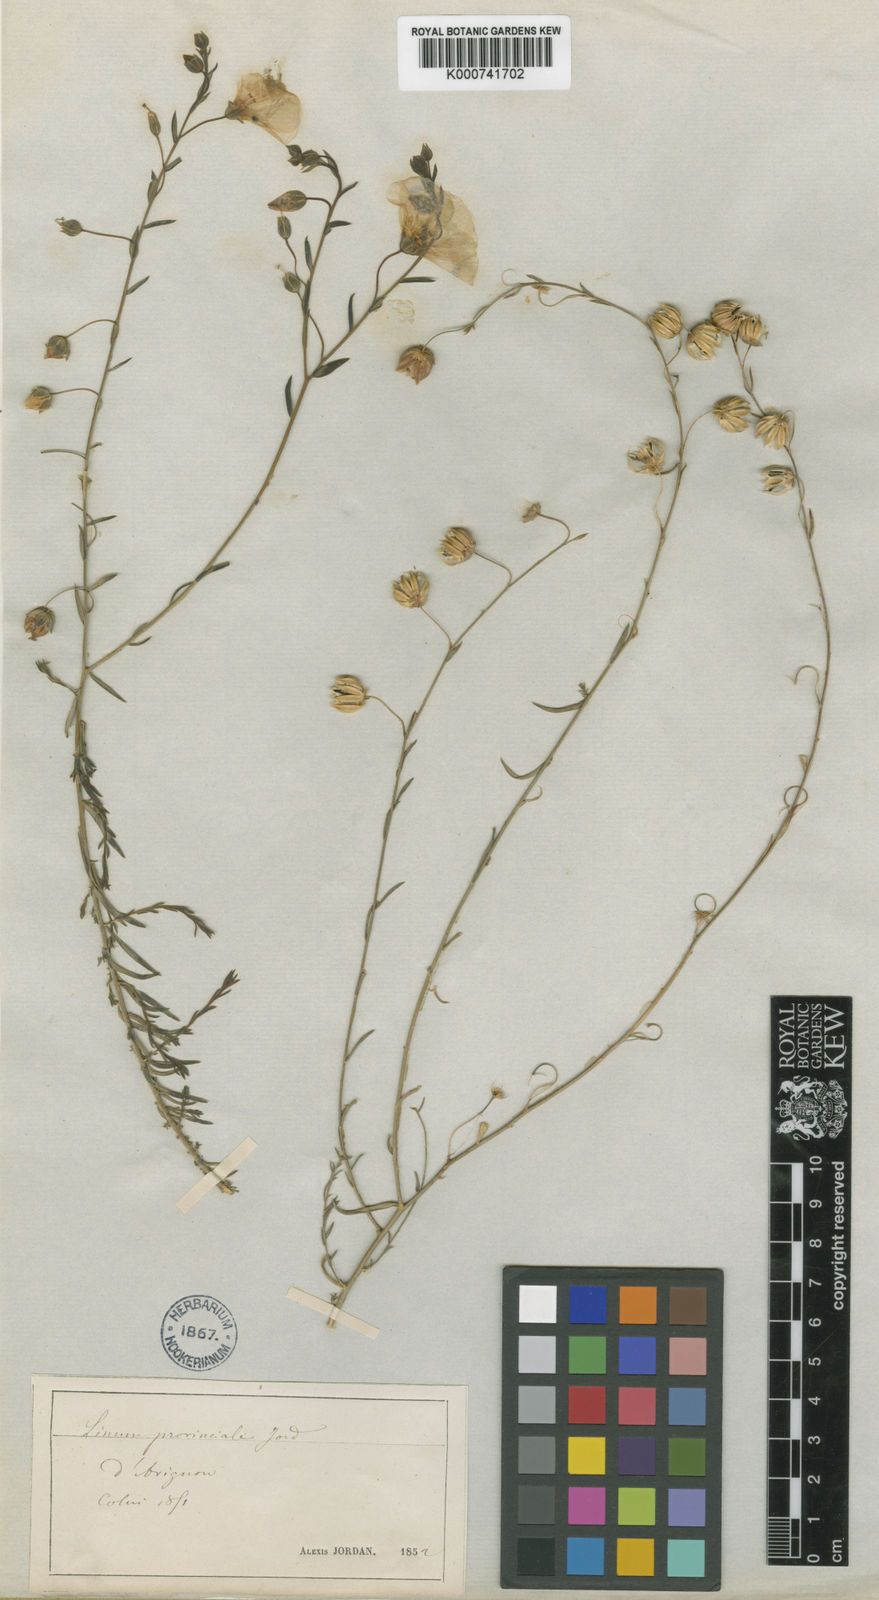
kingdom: Plantae
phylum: Tracheophyta
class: Magnoliopsida
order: Malpighiales
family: Linaceae
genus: Linum
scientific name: Linum alpinum
